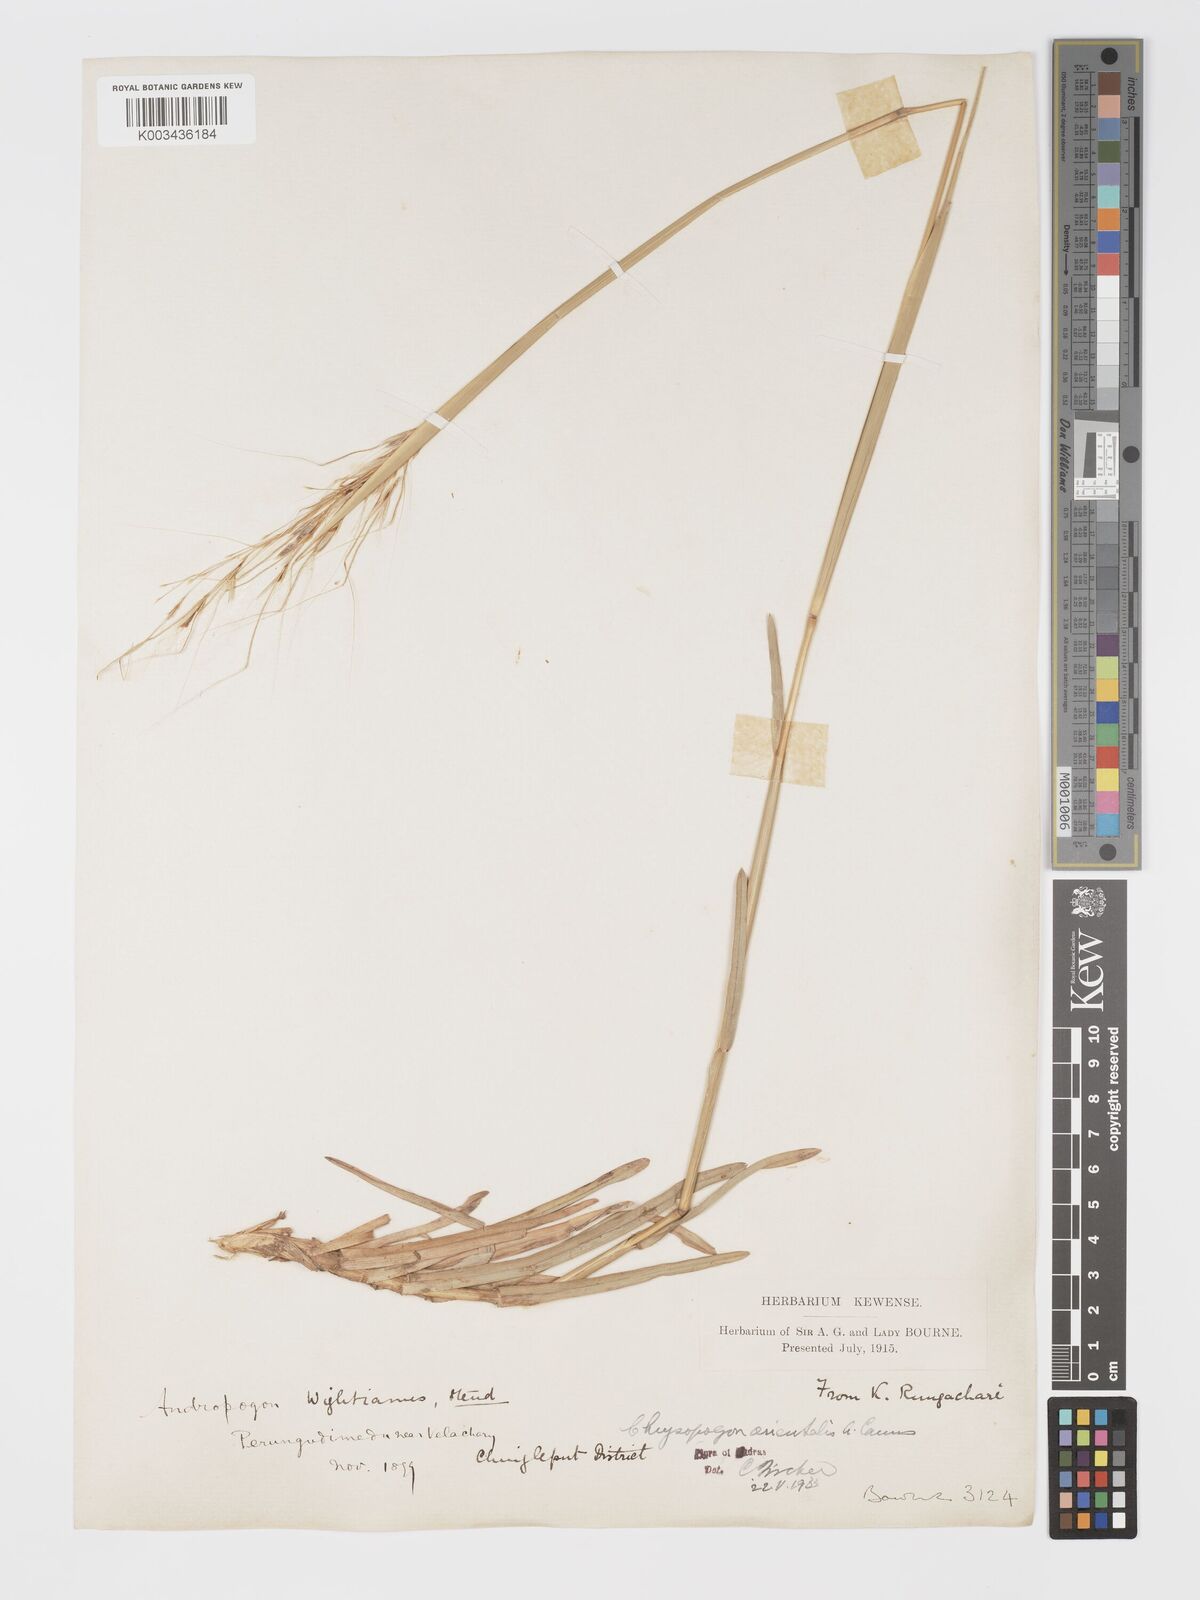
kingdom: Plantae
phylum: Tracheophyta
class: Liliopsida
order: Poales
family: Poaceae
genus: Chrysopogon
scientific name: Chrysopogon orientalis
